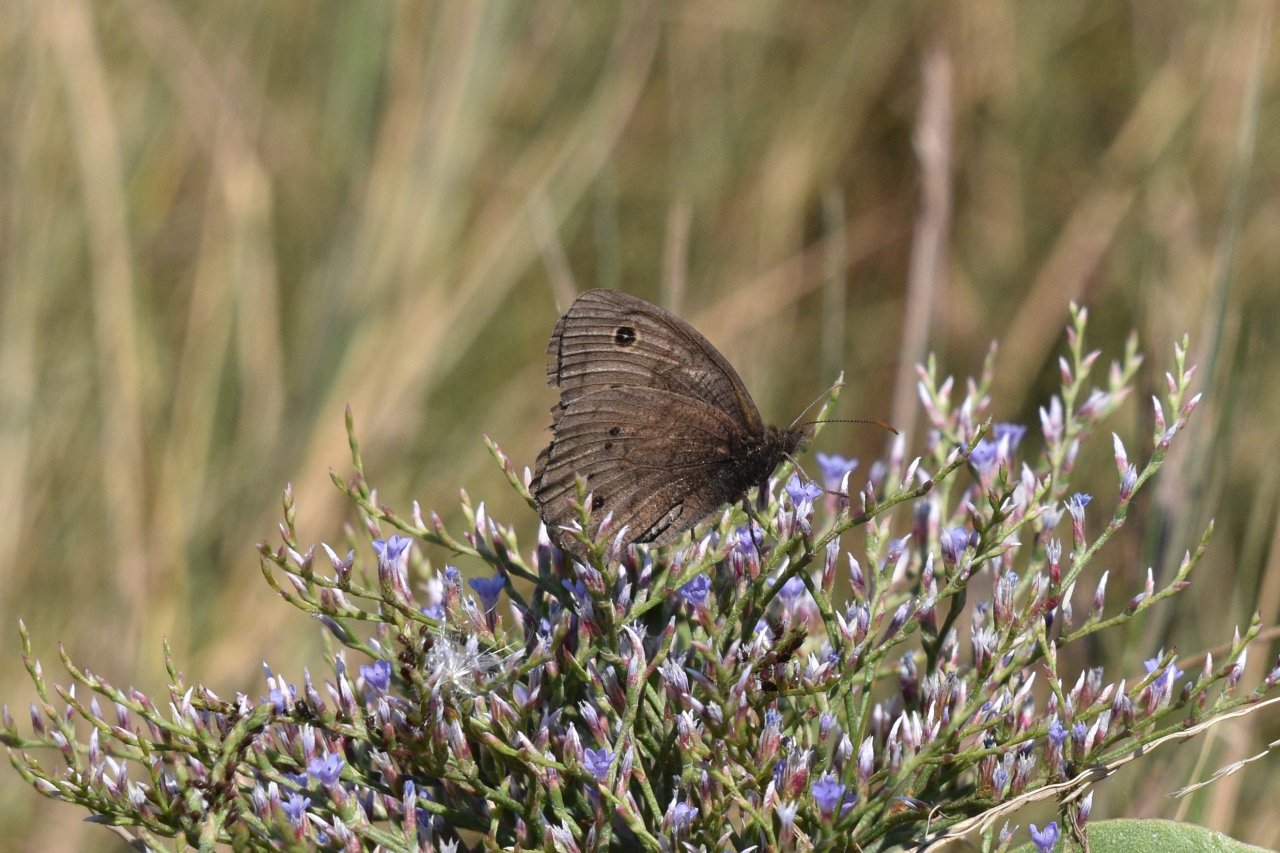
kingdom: Animalia
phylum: Arthropoda
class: Insecta
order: Lepidoptera
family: Nymphalidae
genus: Cercyonis
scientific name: Cercyonis pegala
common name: Common Wood-Nymph
